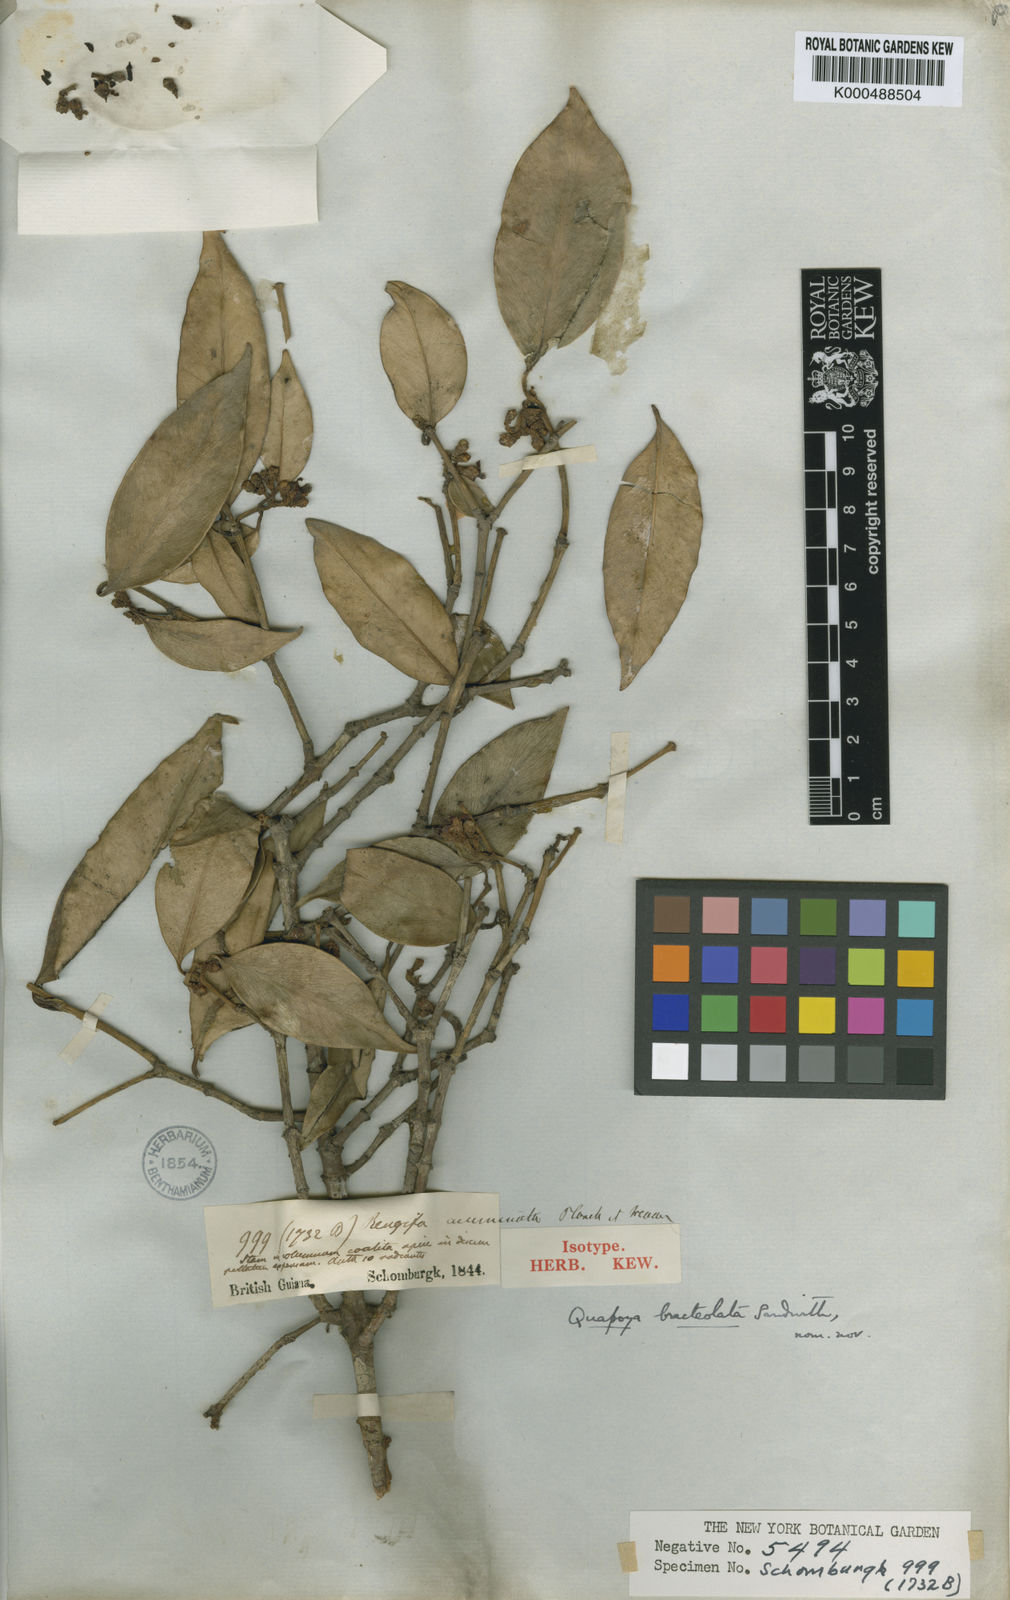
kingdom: Plantae
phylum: Tracheophyta
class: Magnoliopsida
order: Malpighiales
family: Clusiaceae
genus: Clusia
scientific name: Clusia hammeliana
